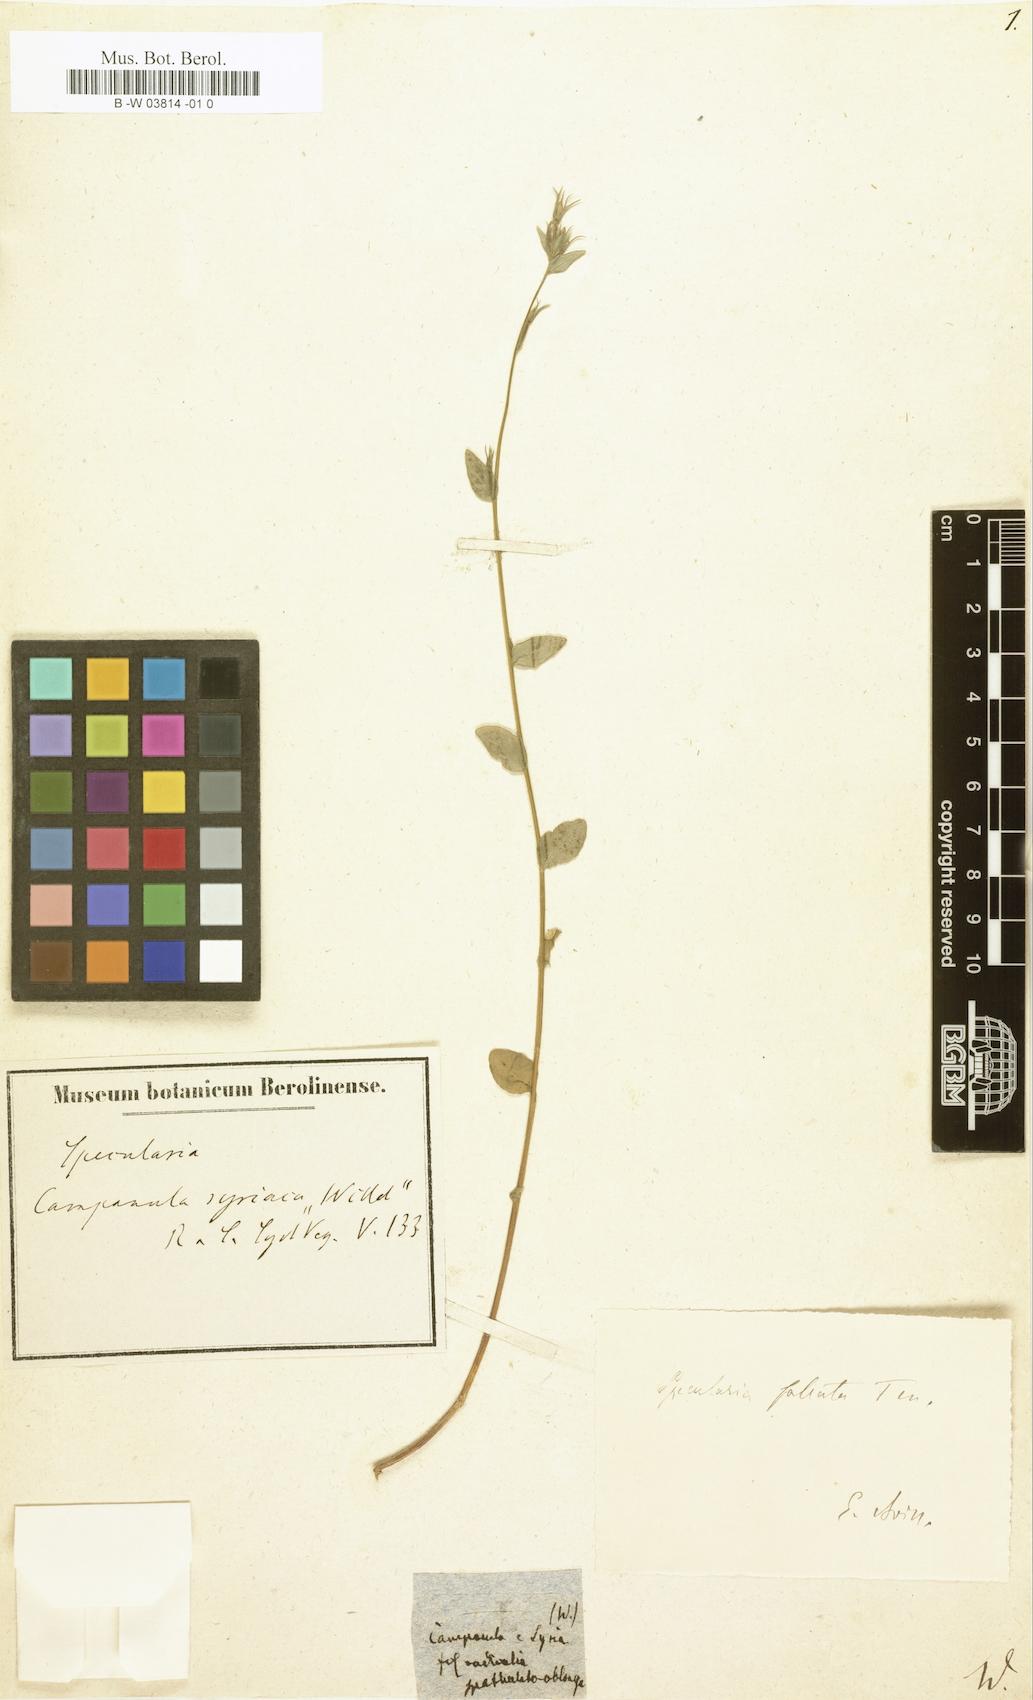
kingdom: Plantae
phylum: Tracheophyta
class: Magnoliopsida
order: Asterales
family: Campanulaceae
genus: Legousia
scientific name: Legousia falcata
